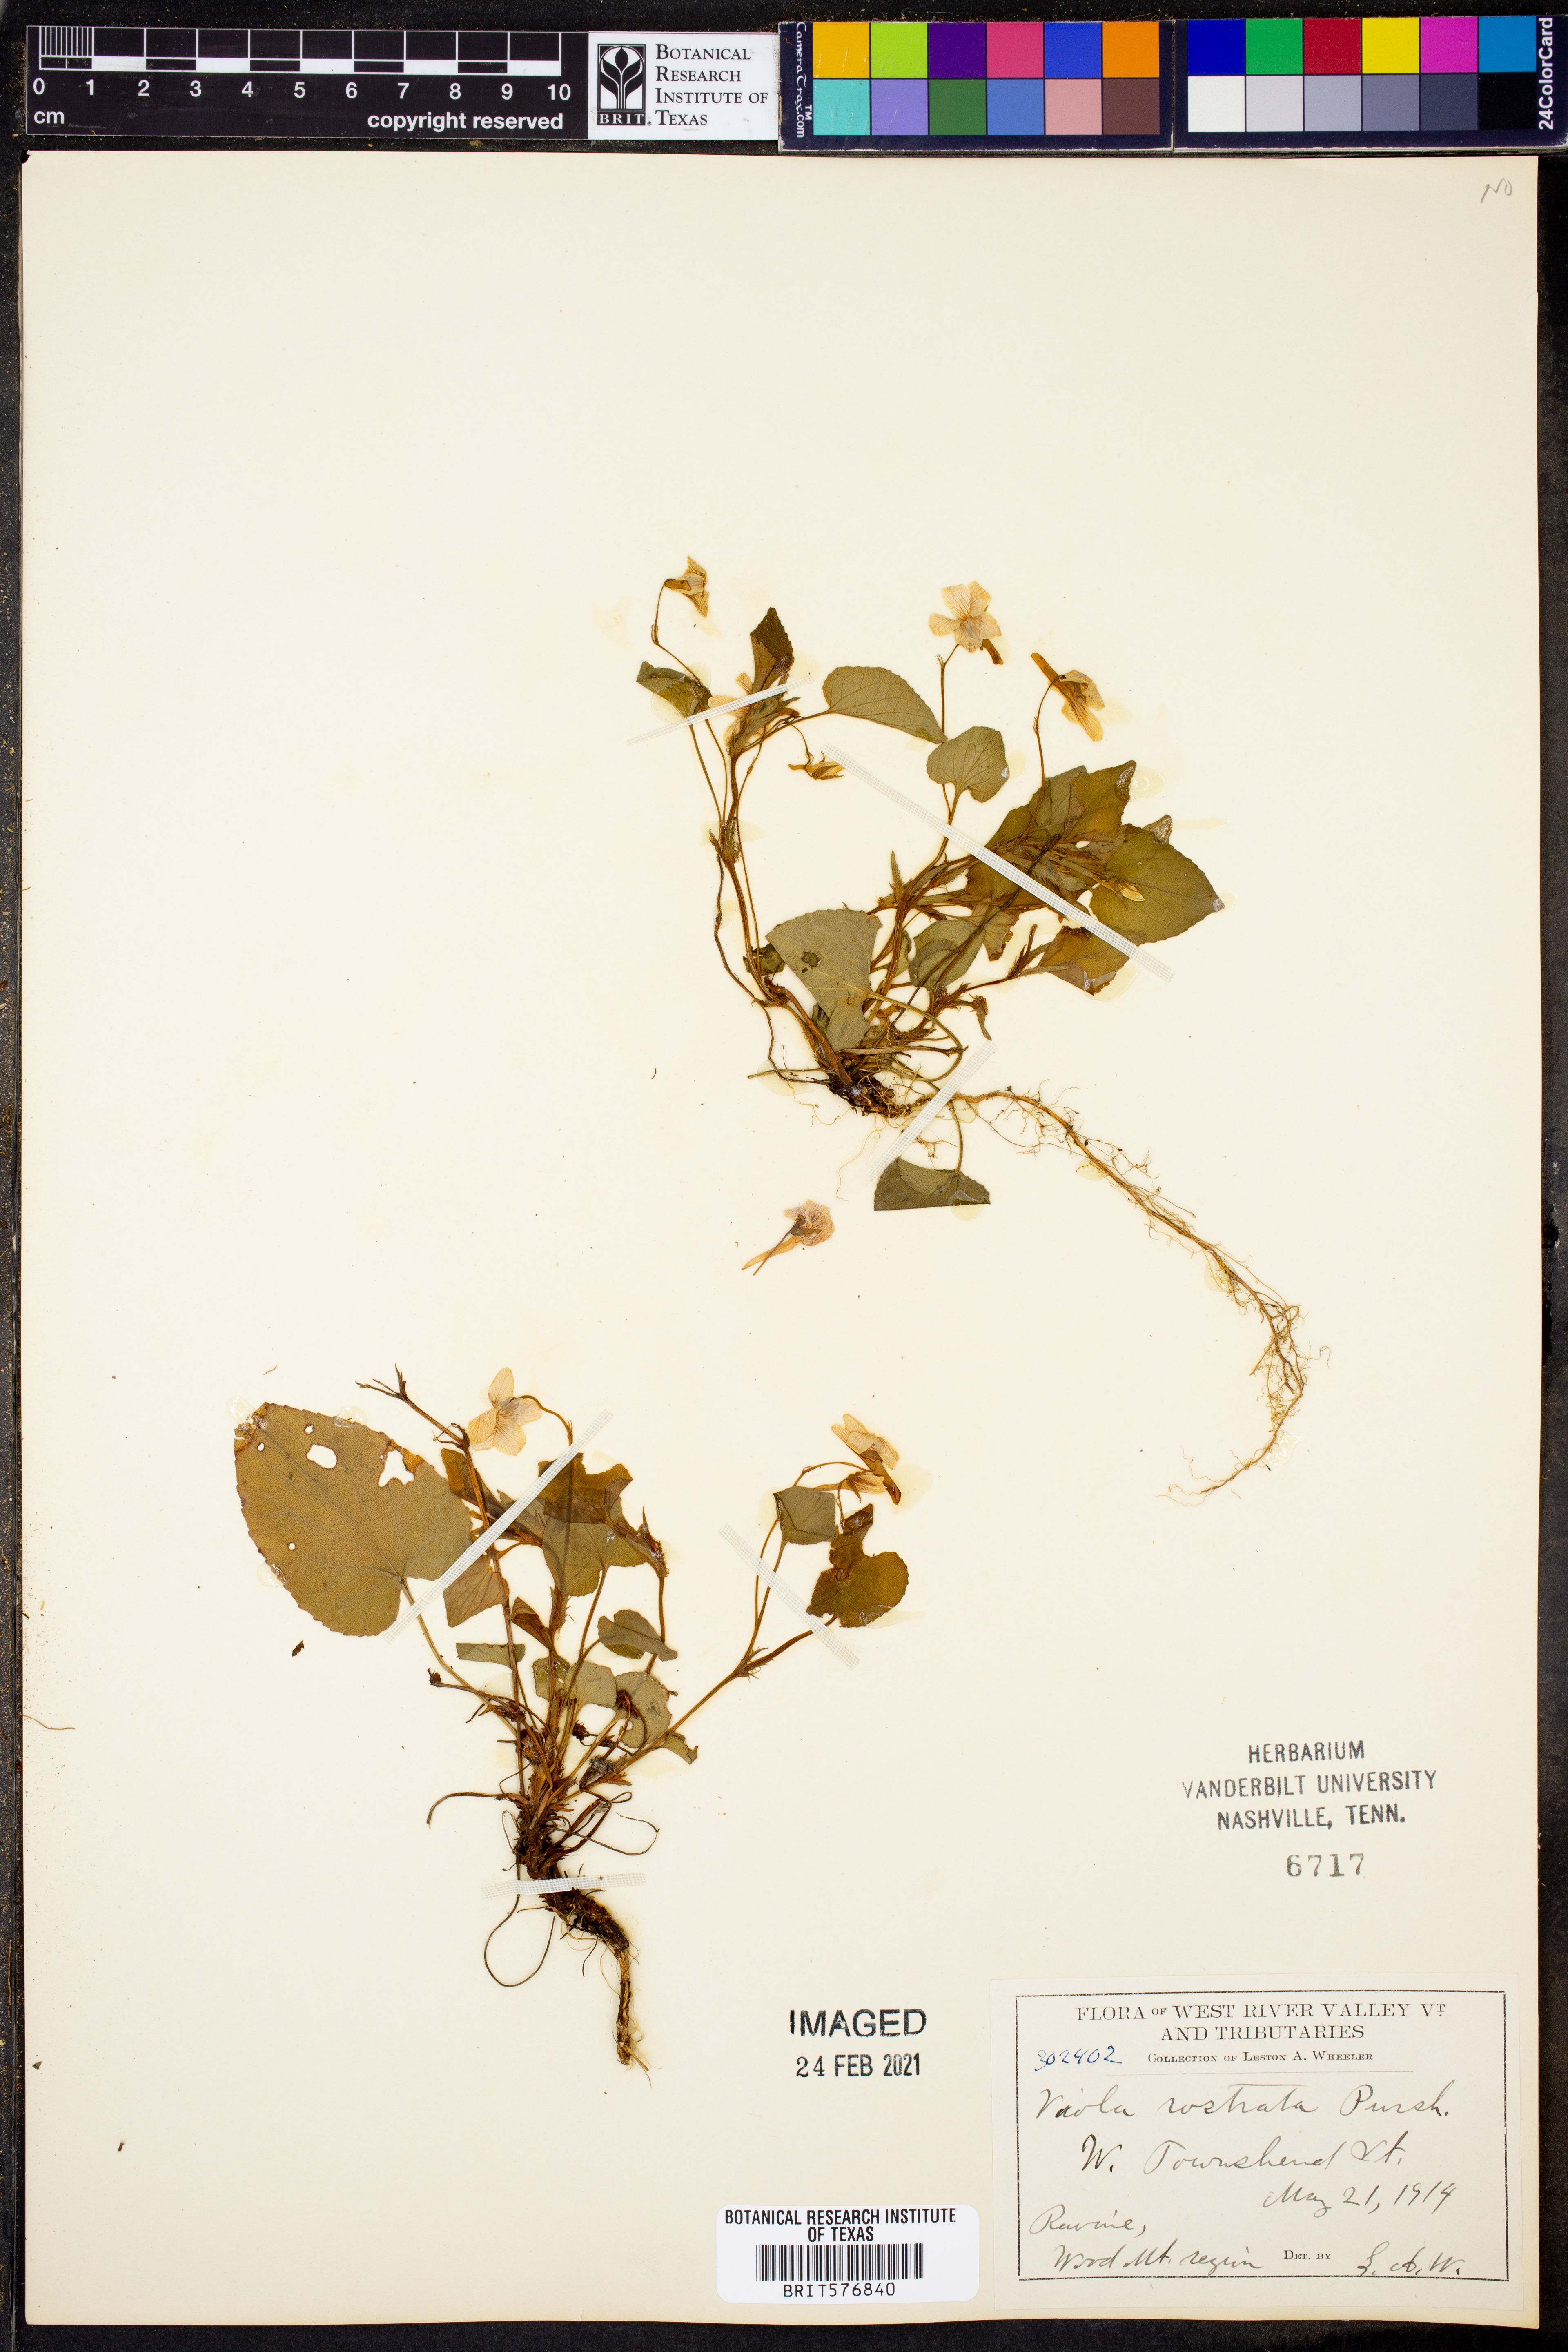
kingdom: Plantae
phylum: Tracheophyta
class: Magnoliopsida
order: Malpighiales
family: Violaceae
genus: Viola
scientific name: Viola rostrata
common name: Long-spur violet
